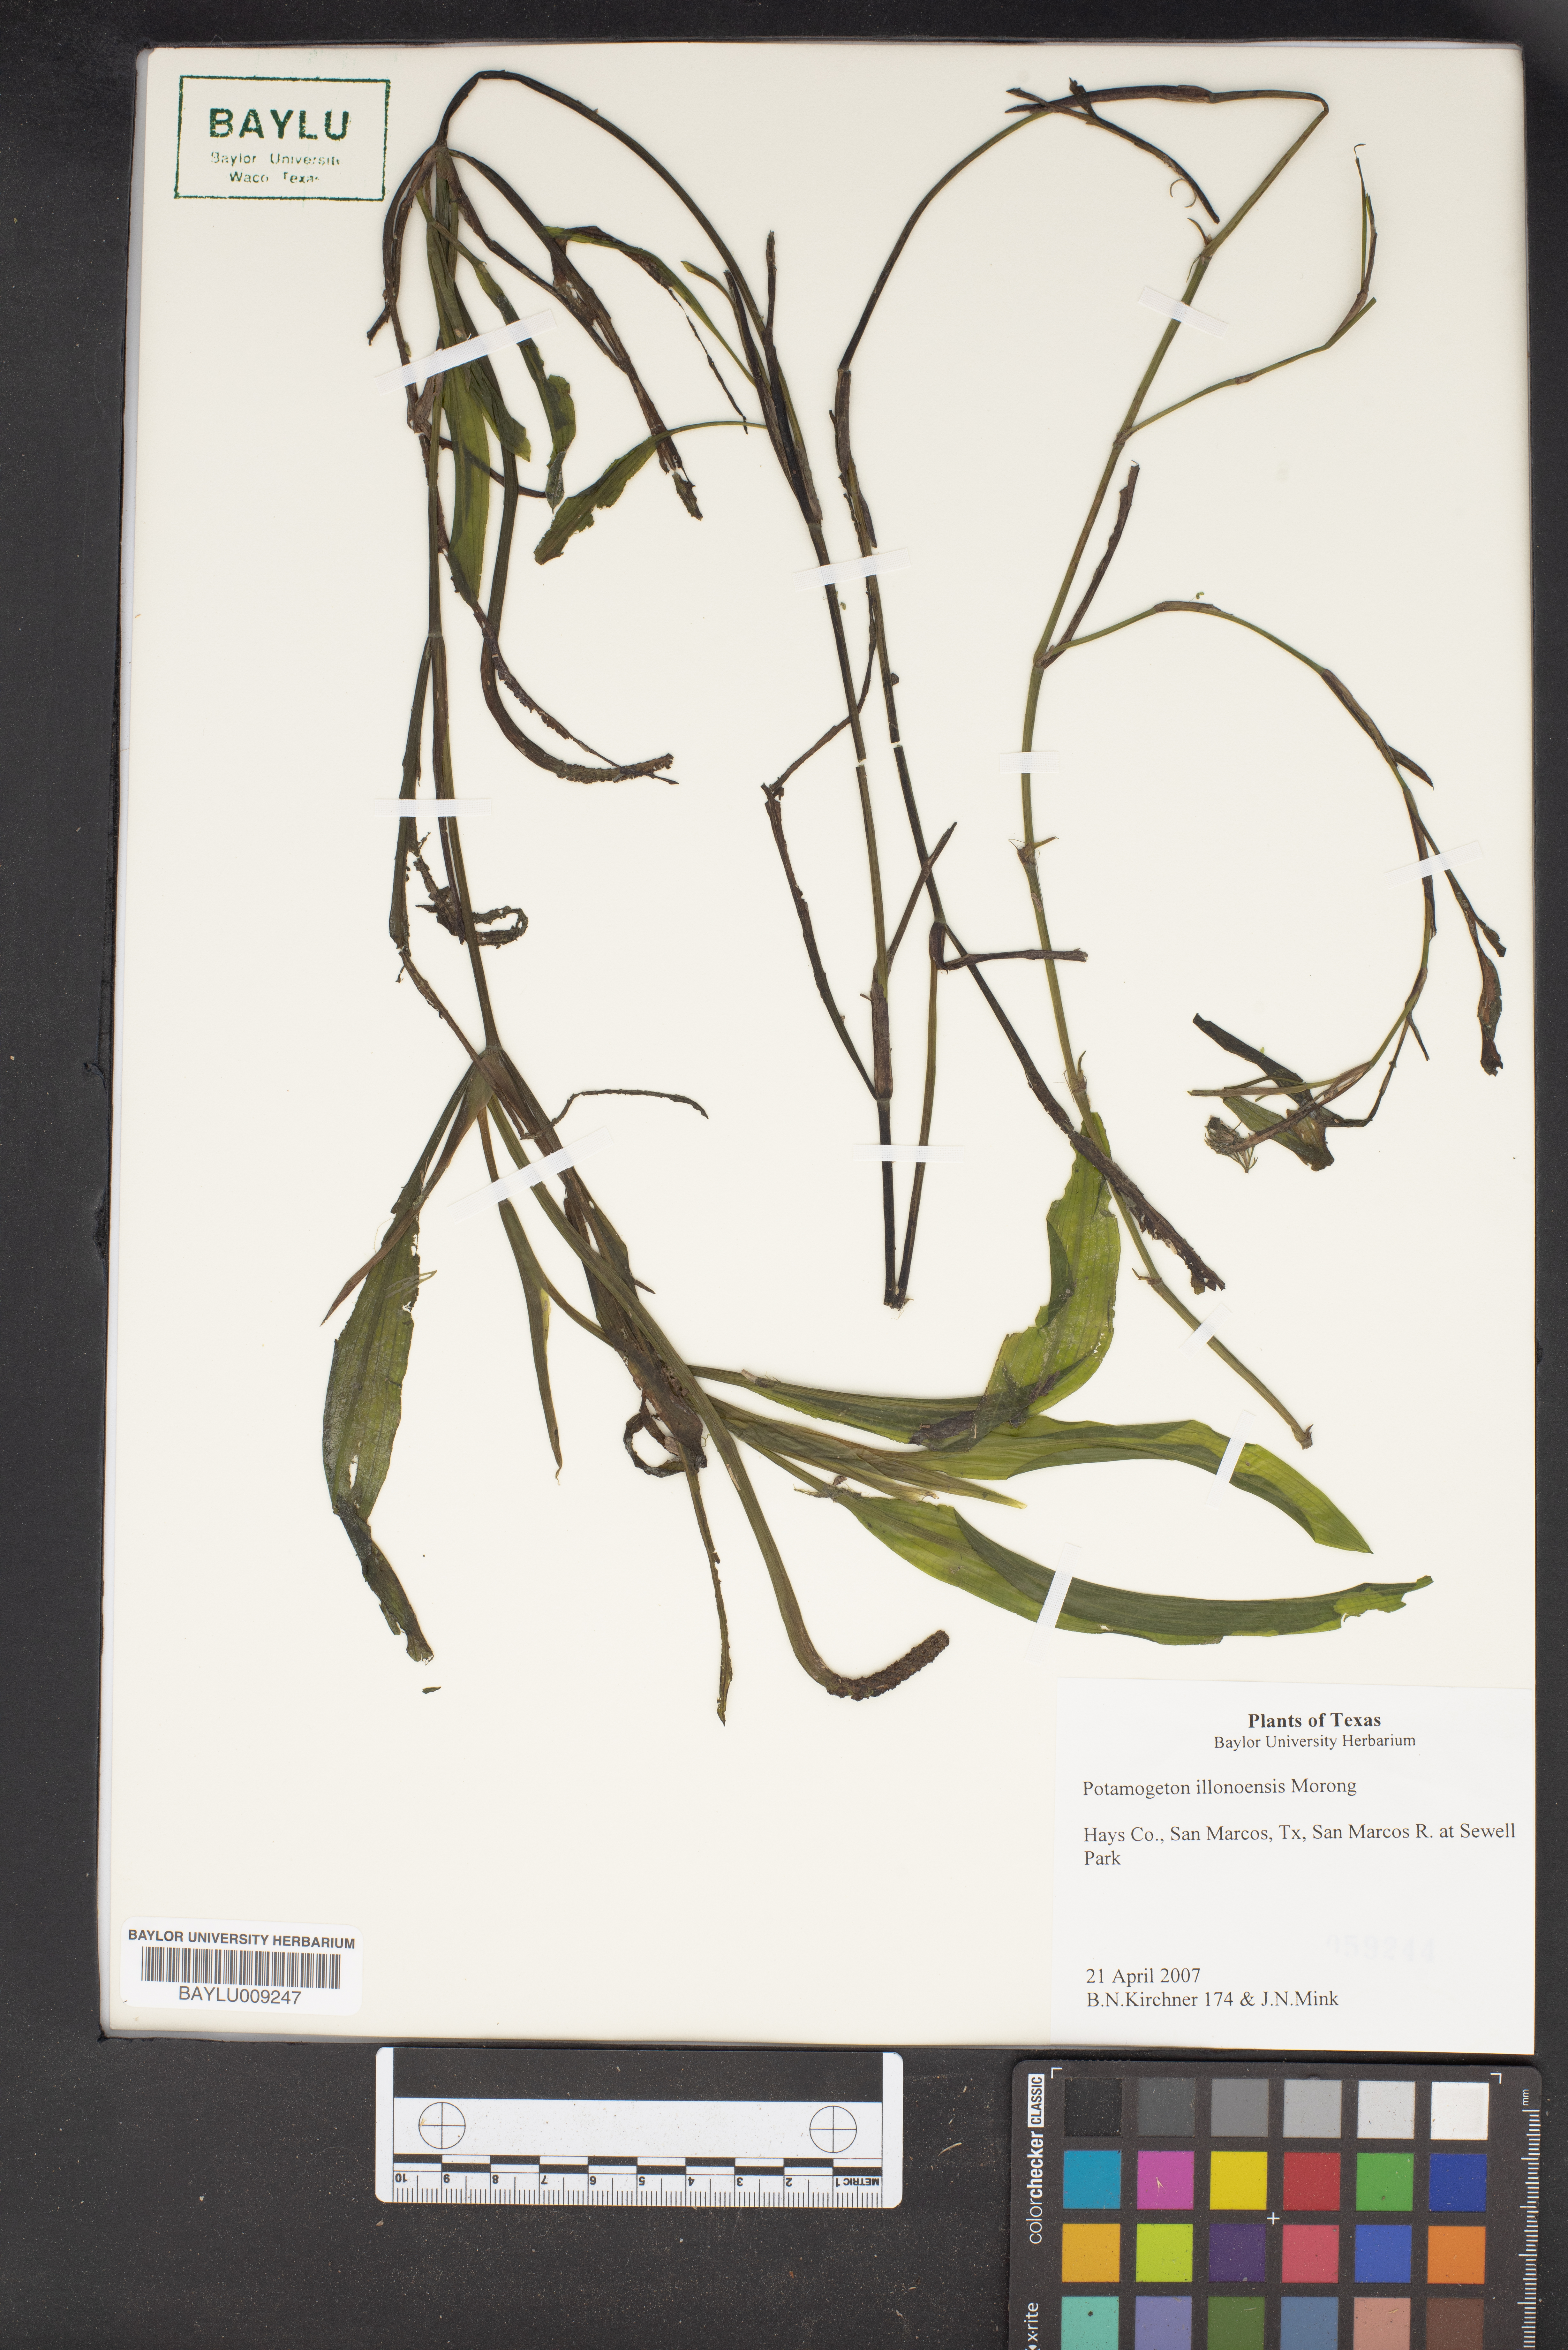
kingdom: Plantae
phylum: Tracheophyta
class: Liliopsida
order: Alismatales
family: Potamogetonaceae
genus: Potamogeton
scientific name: Potamogeton illinoensis
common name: Illinois pondweed
